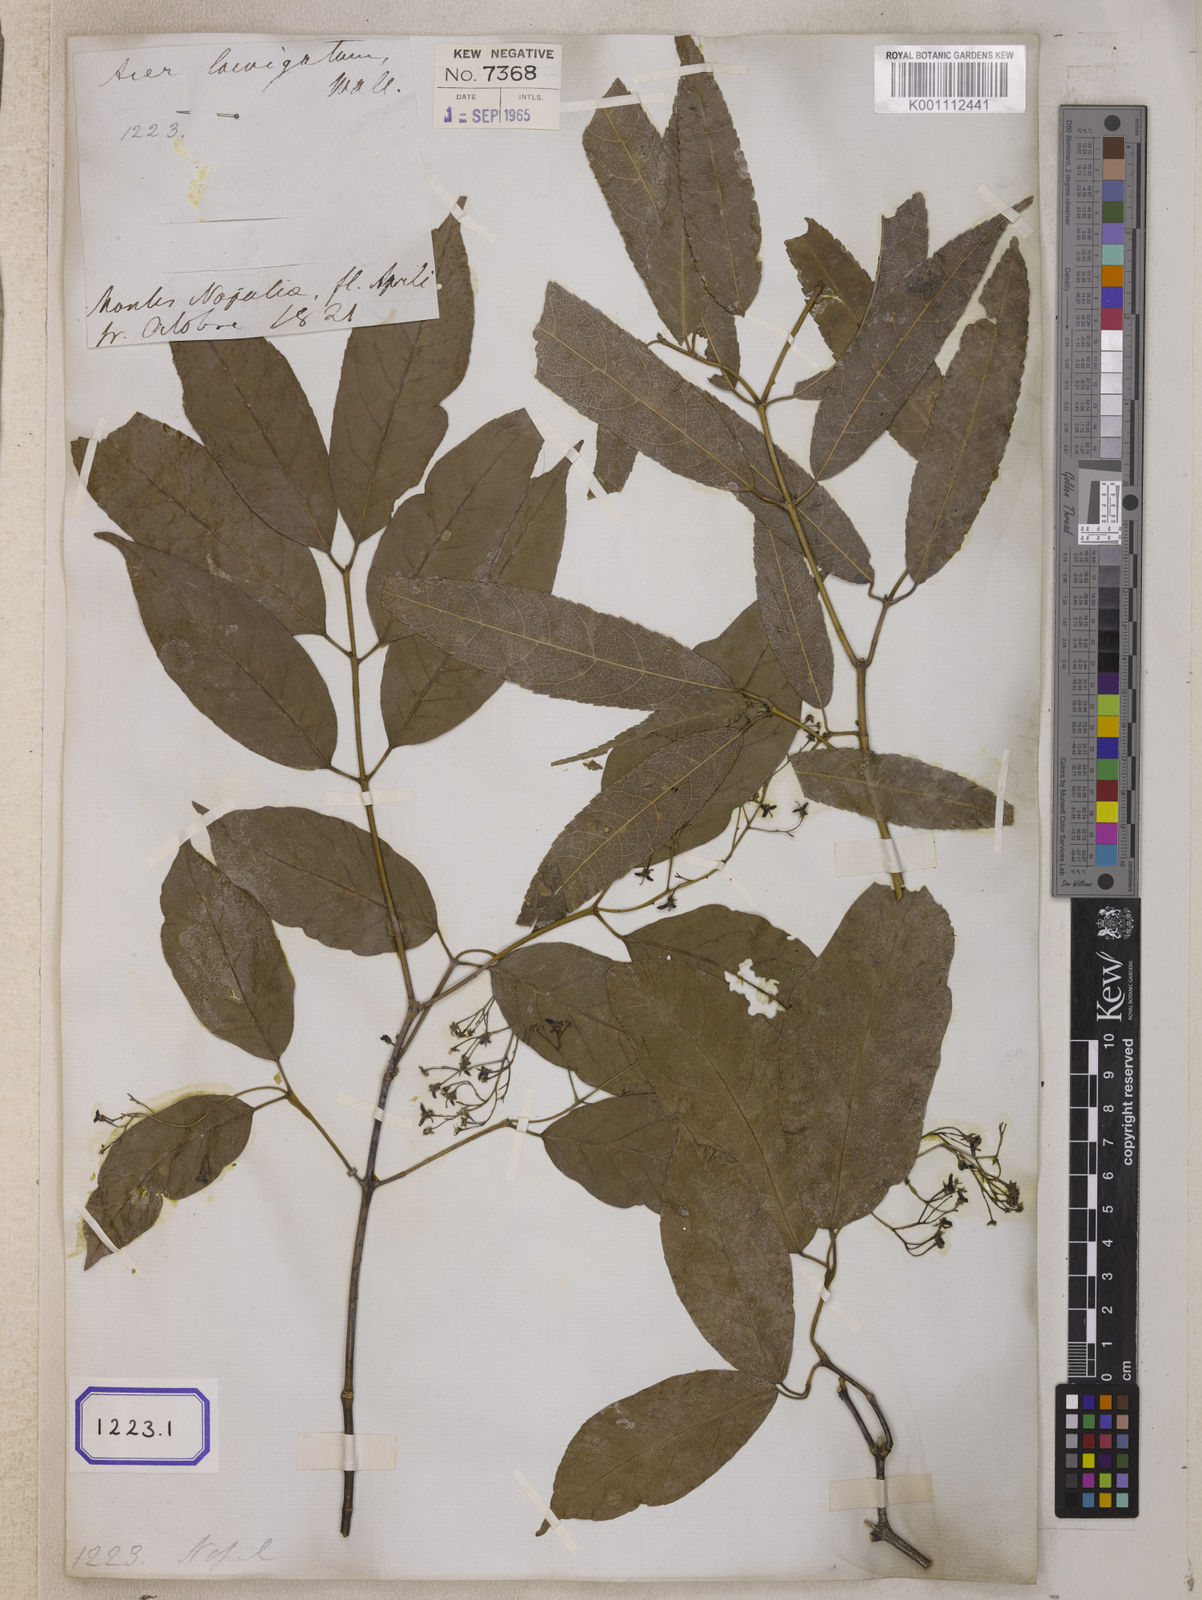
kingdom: Plantae
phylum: Tracheophyta
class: Magnoliopsida
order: Sapindales
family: Sapindaceae
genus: Acer
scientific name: Acer laevigatum
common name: Nepal maple
